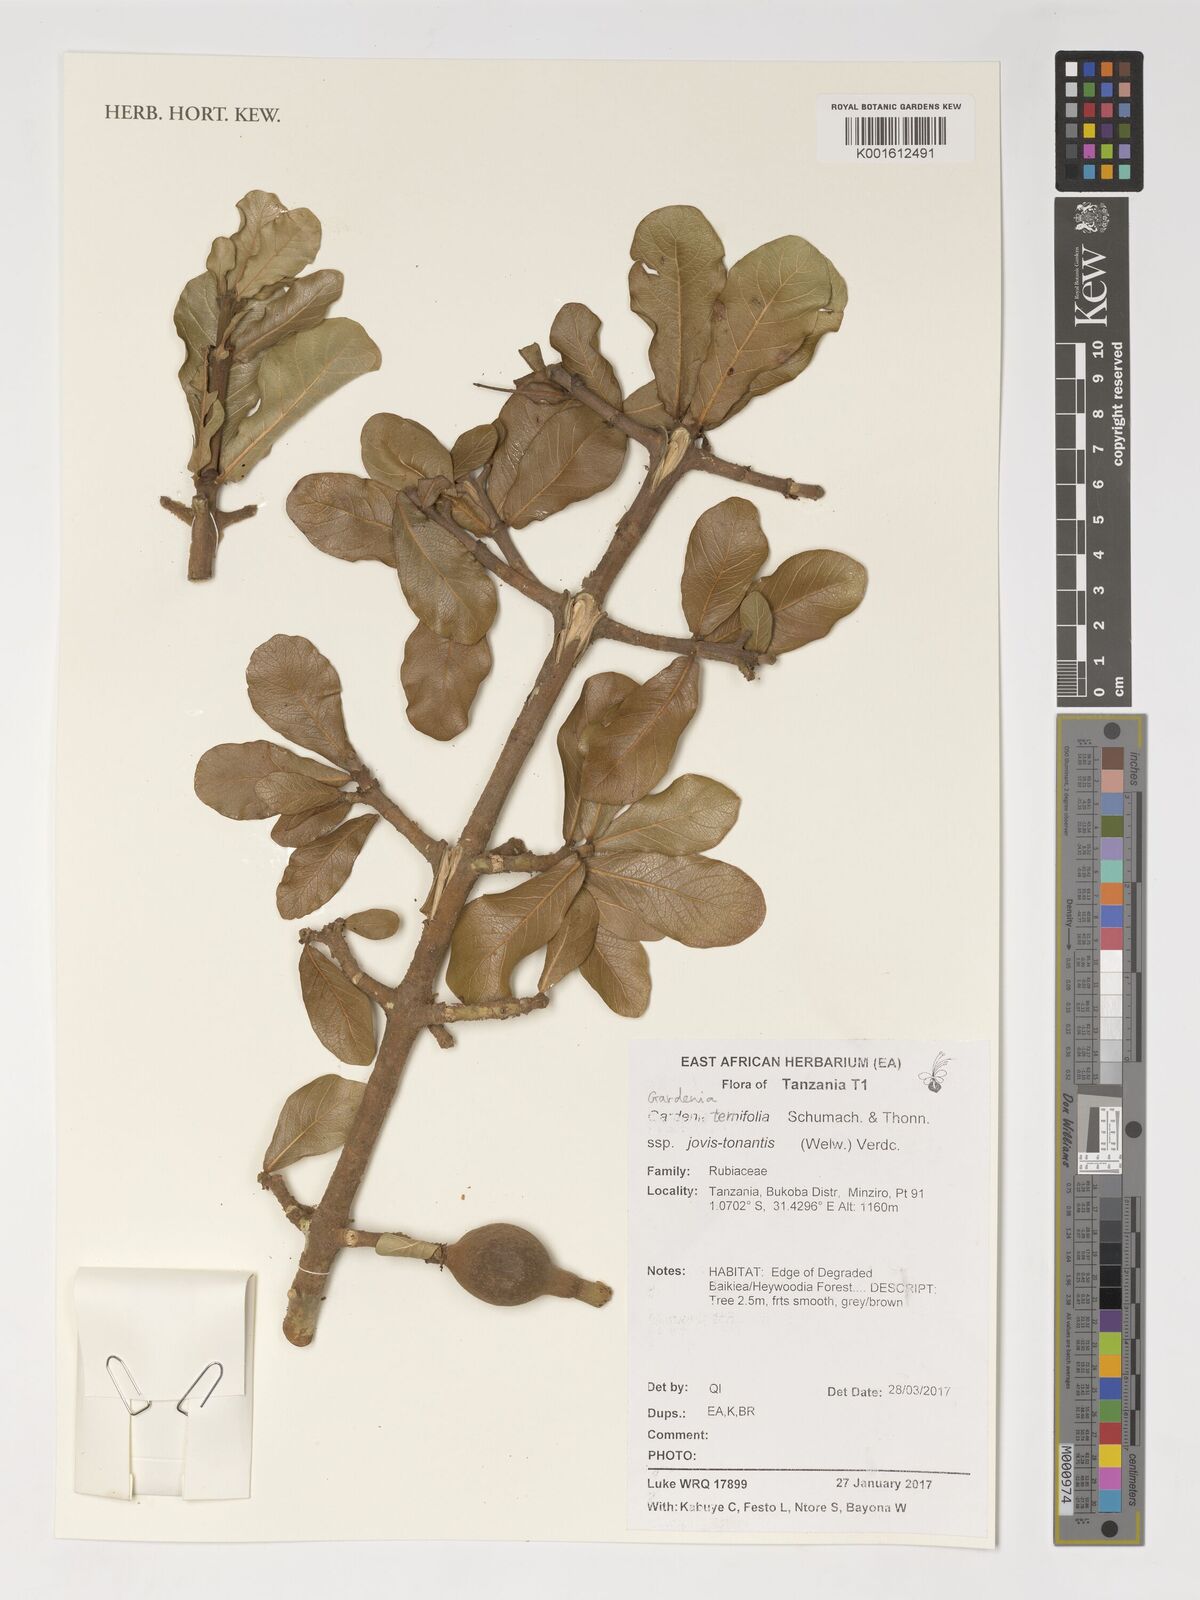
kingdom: Plantae
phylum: Tracheophyta
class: Magnoliopsida
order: Gentianales
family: Rubiaceae
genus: Gardenia
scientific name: Gardenia ternifolia
